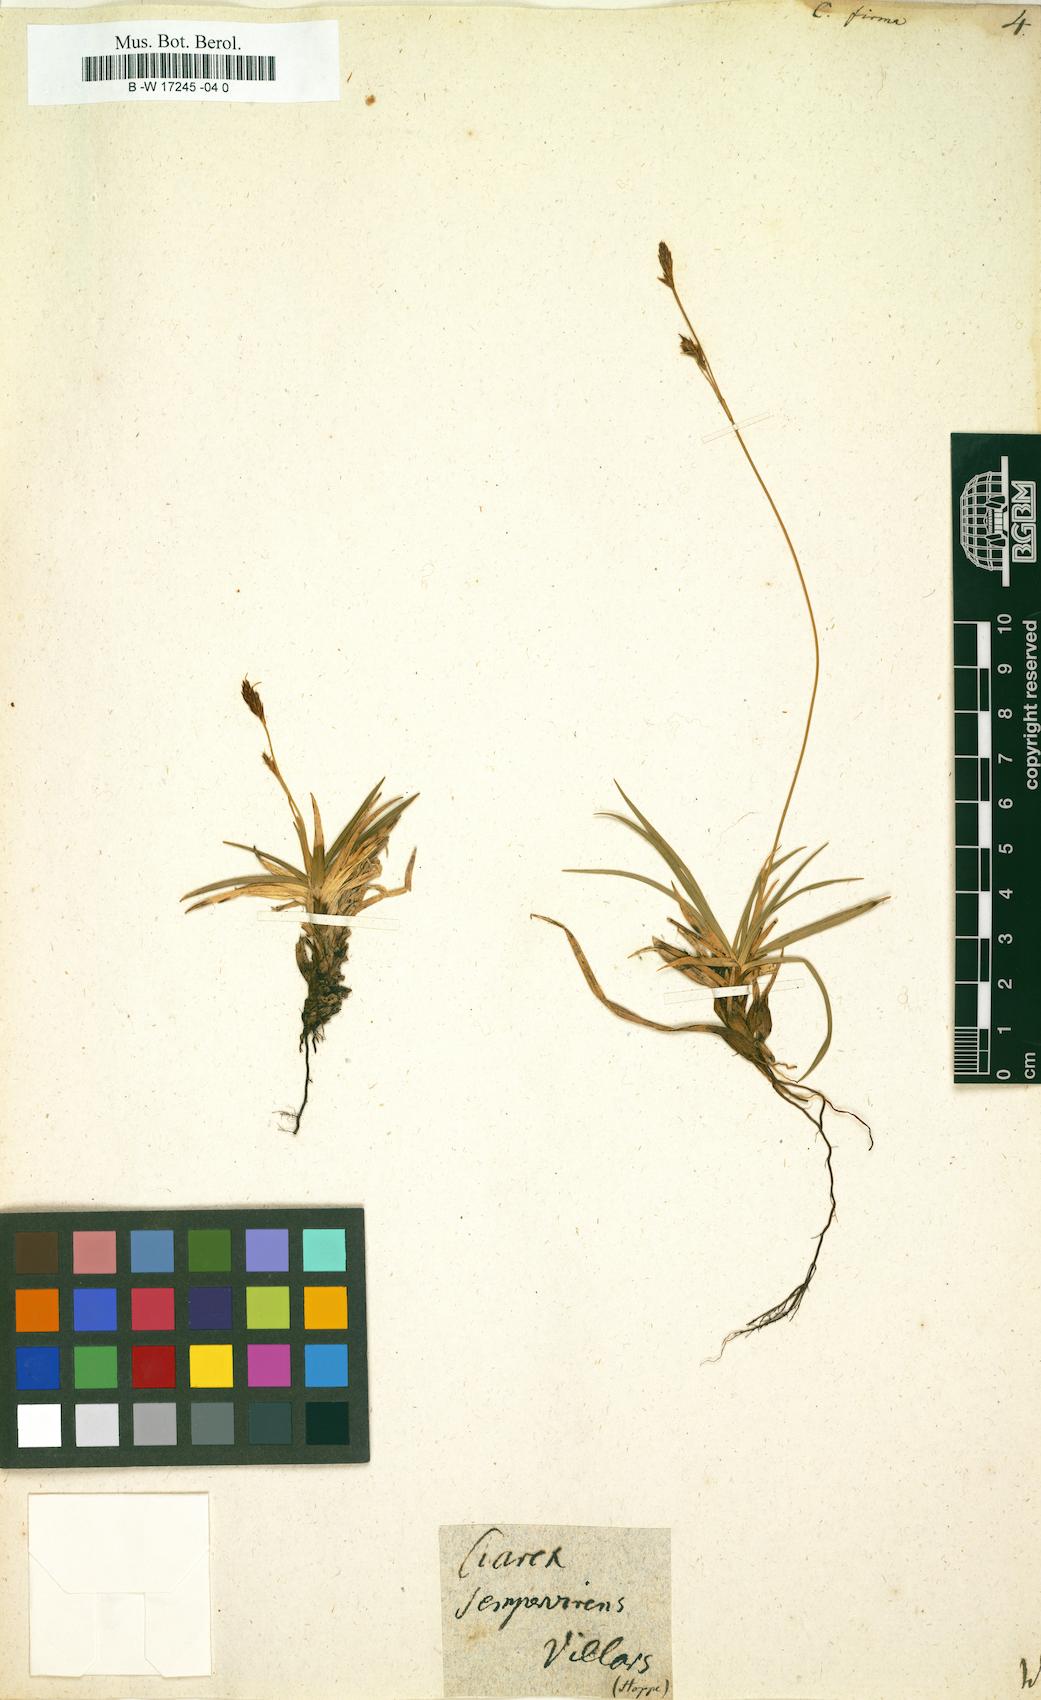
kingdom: Plantae
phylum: Tracheophyta
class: Liliopsida
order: Poales
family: Cyperaceae
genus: Carex
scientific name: Carex firma
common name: Dwarf pillow sedge
